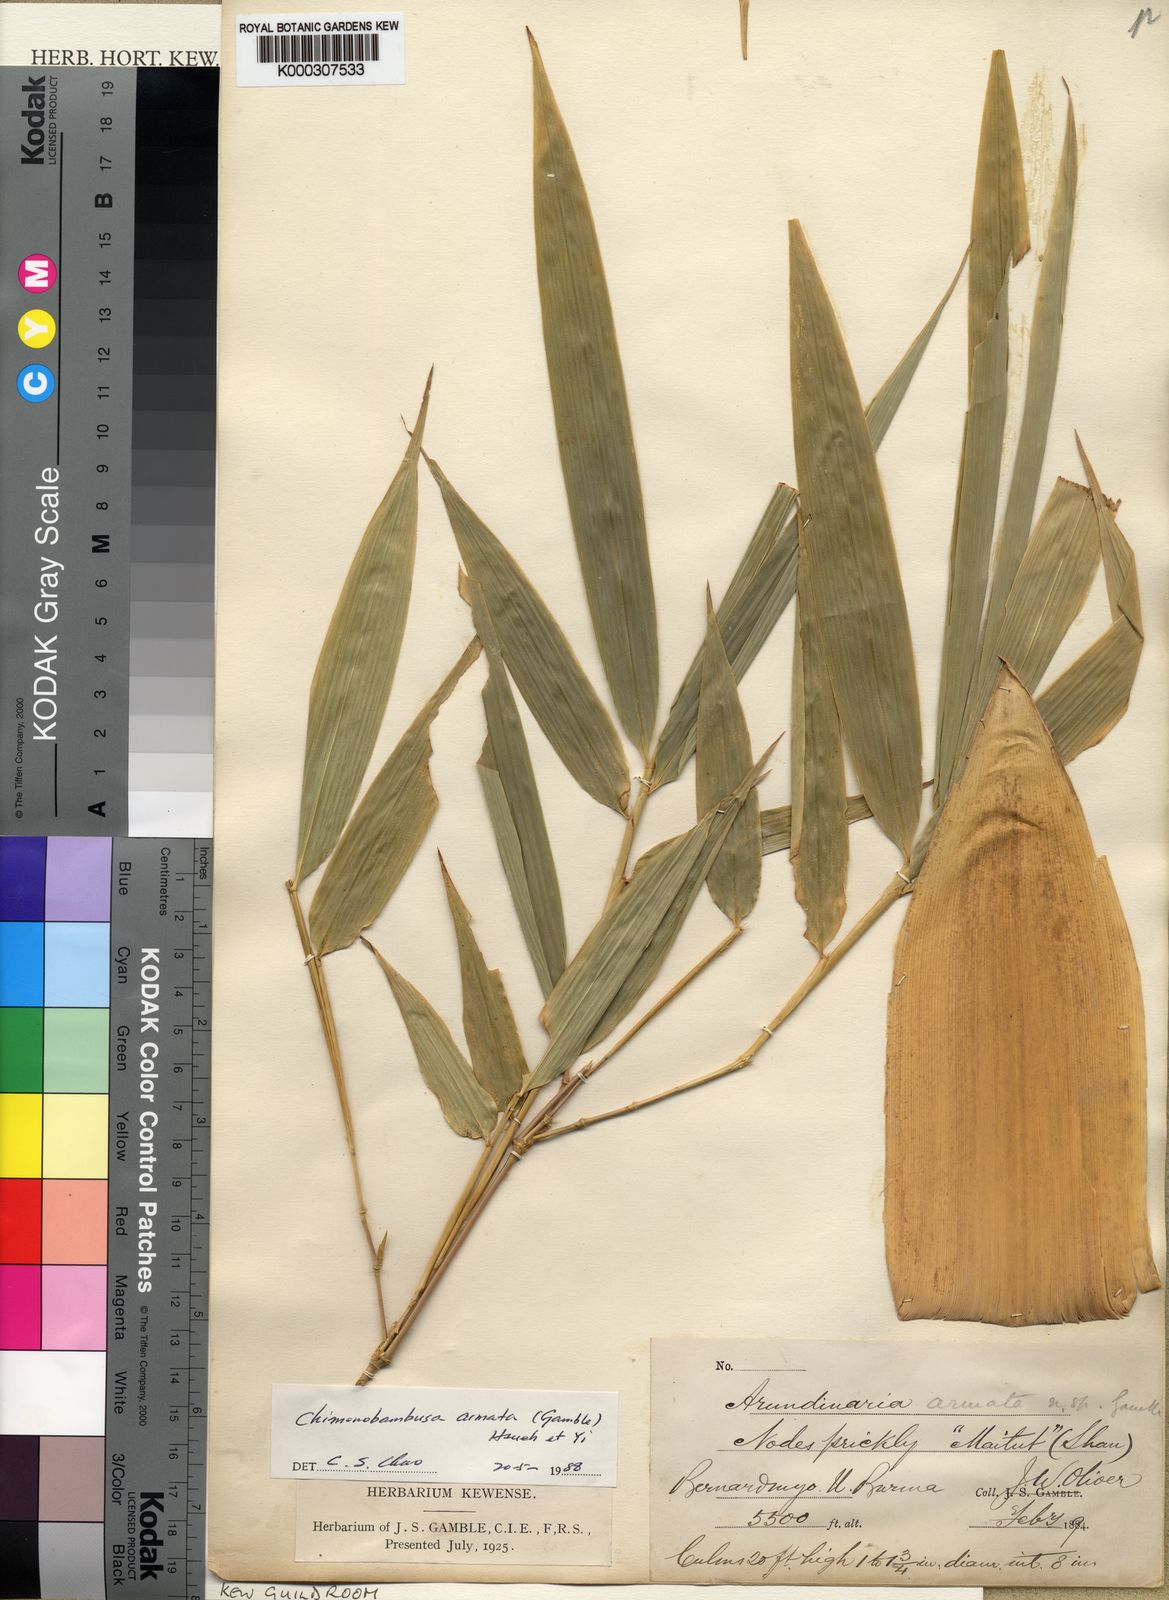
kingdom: Plantae
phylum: Tracheophyta
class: Liliopsida
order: Poales
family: Poaceae
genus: Chimonobambusa
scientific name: Chimonobambusa armata
